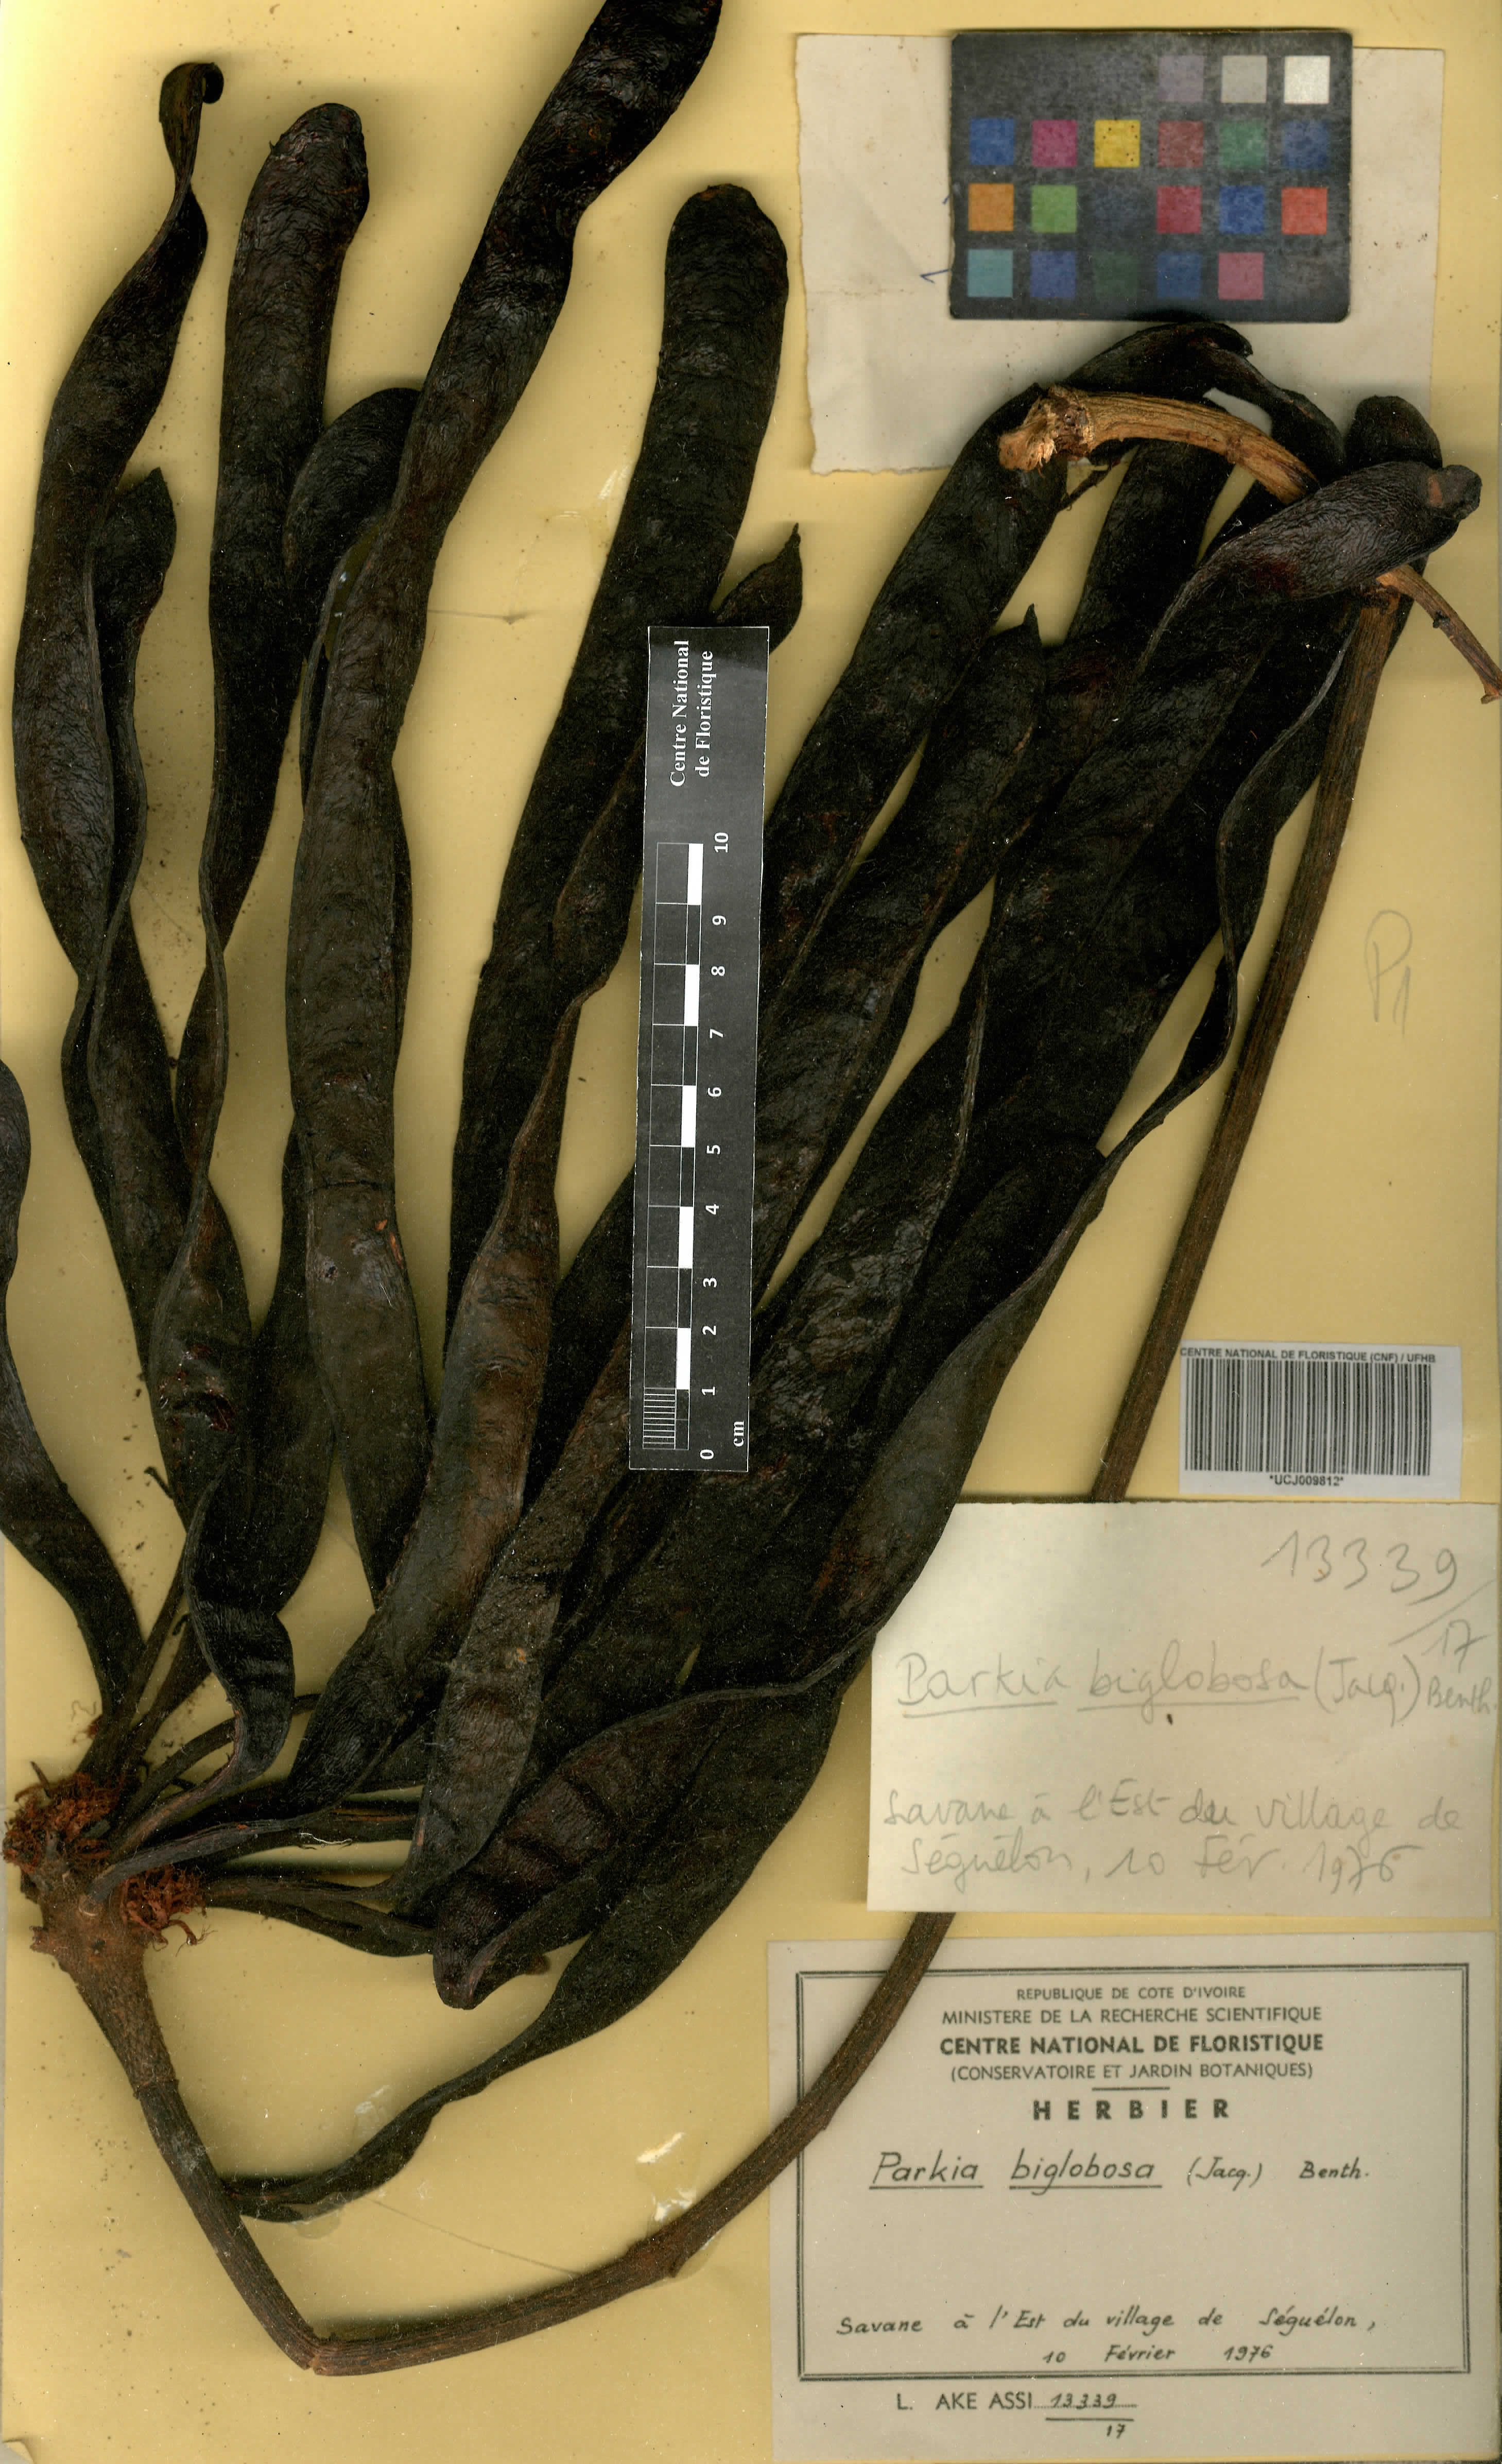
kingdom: Plantae
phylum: Tracheophyta
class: Magnoliopsida
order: Fabales
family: Fabaceae
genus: Parkia
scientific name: Parkia timoriana
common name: Legume
